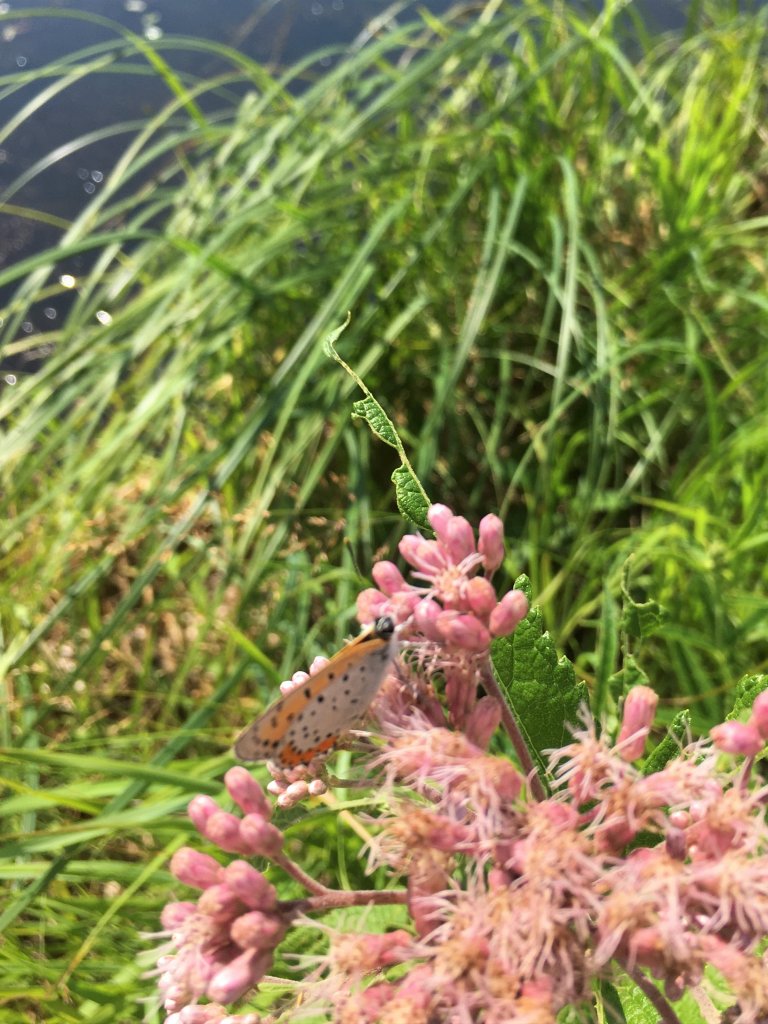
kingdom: Animalia
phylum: Arthropoda
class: Insecta
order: Lepidoptera
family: Sesiidae
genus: Sesia
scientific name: Sesia Lycaena hyllus
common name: Bronze Copper
